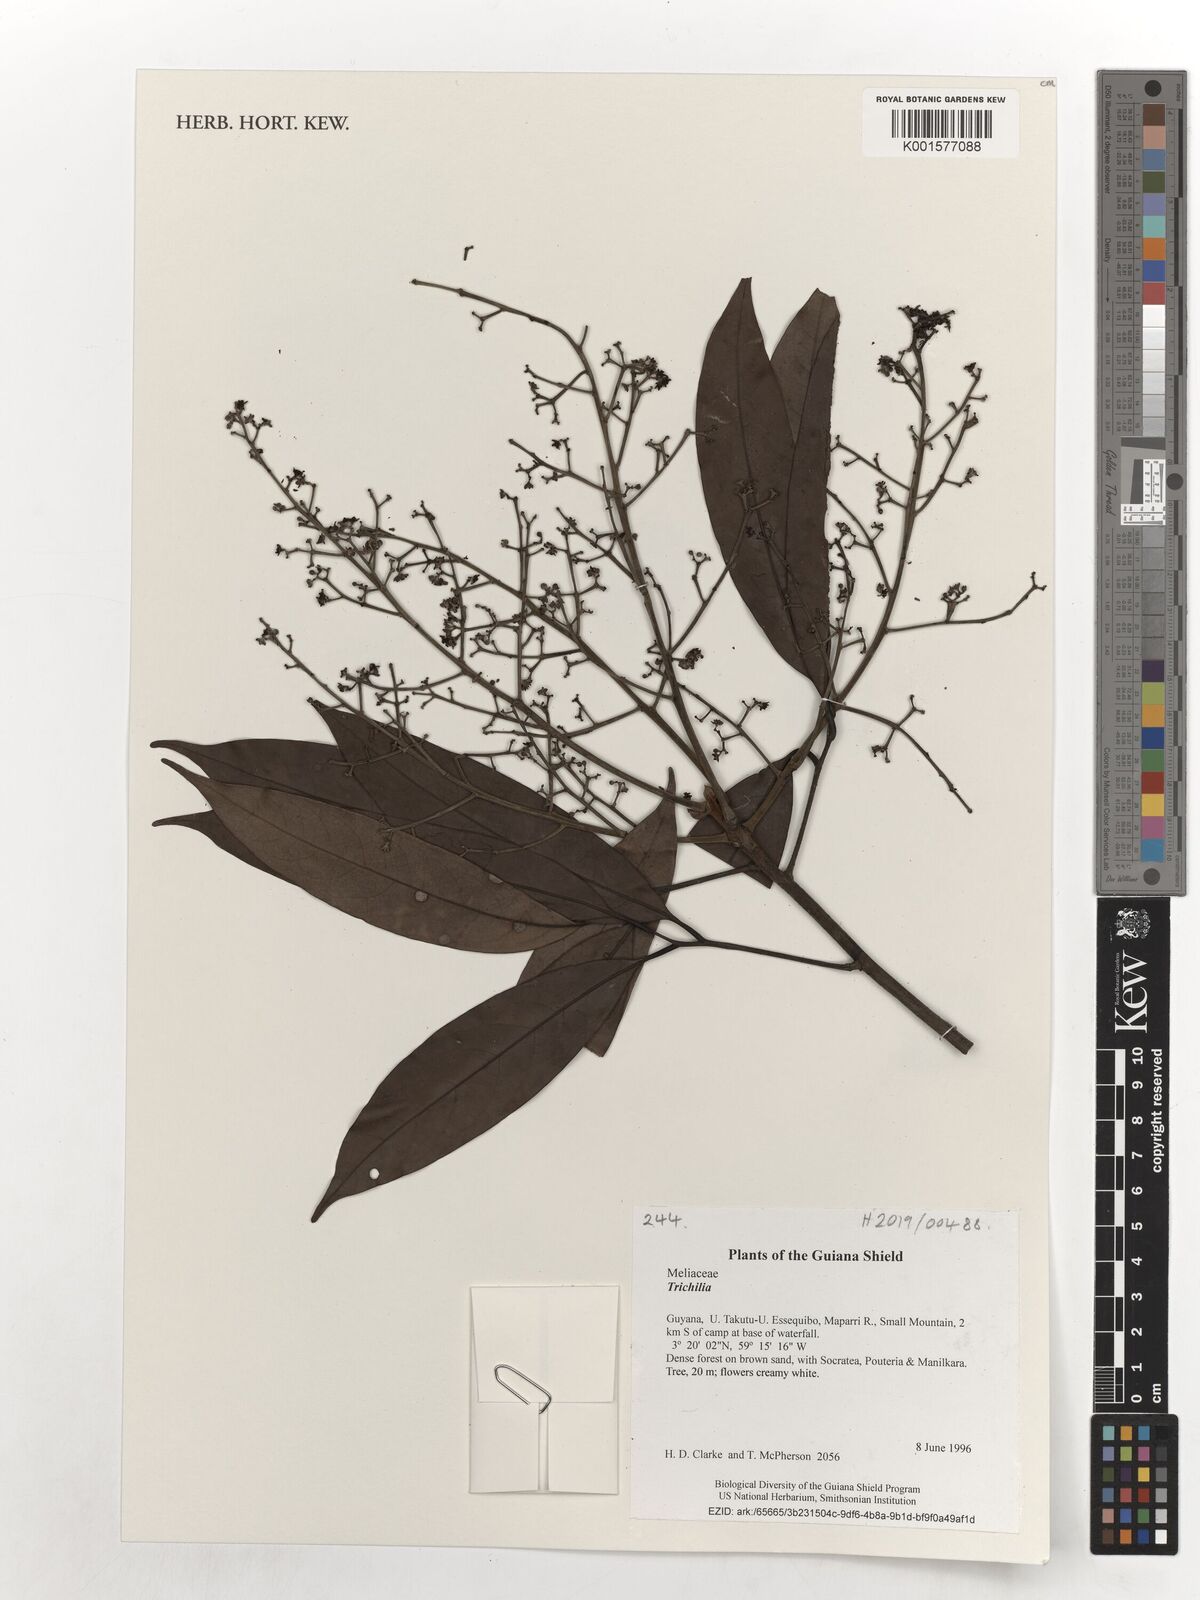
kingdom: Plantae
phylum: Tracheophyta
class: Magnoliopsida
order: Sapindales
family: Meliaceae
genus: Trichilia
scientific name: Trichilia
